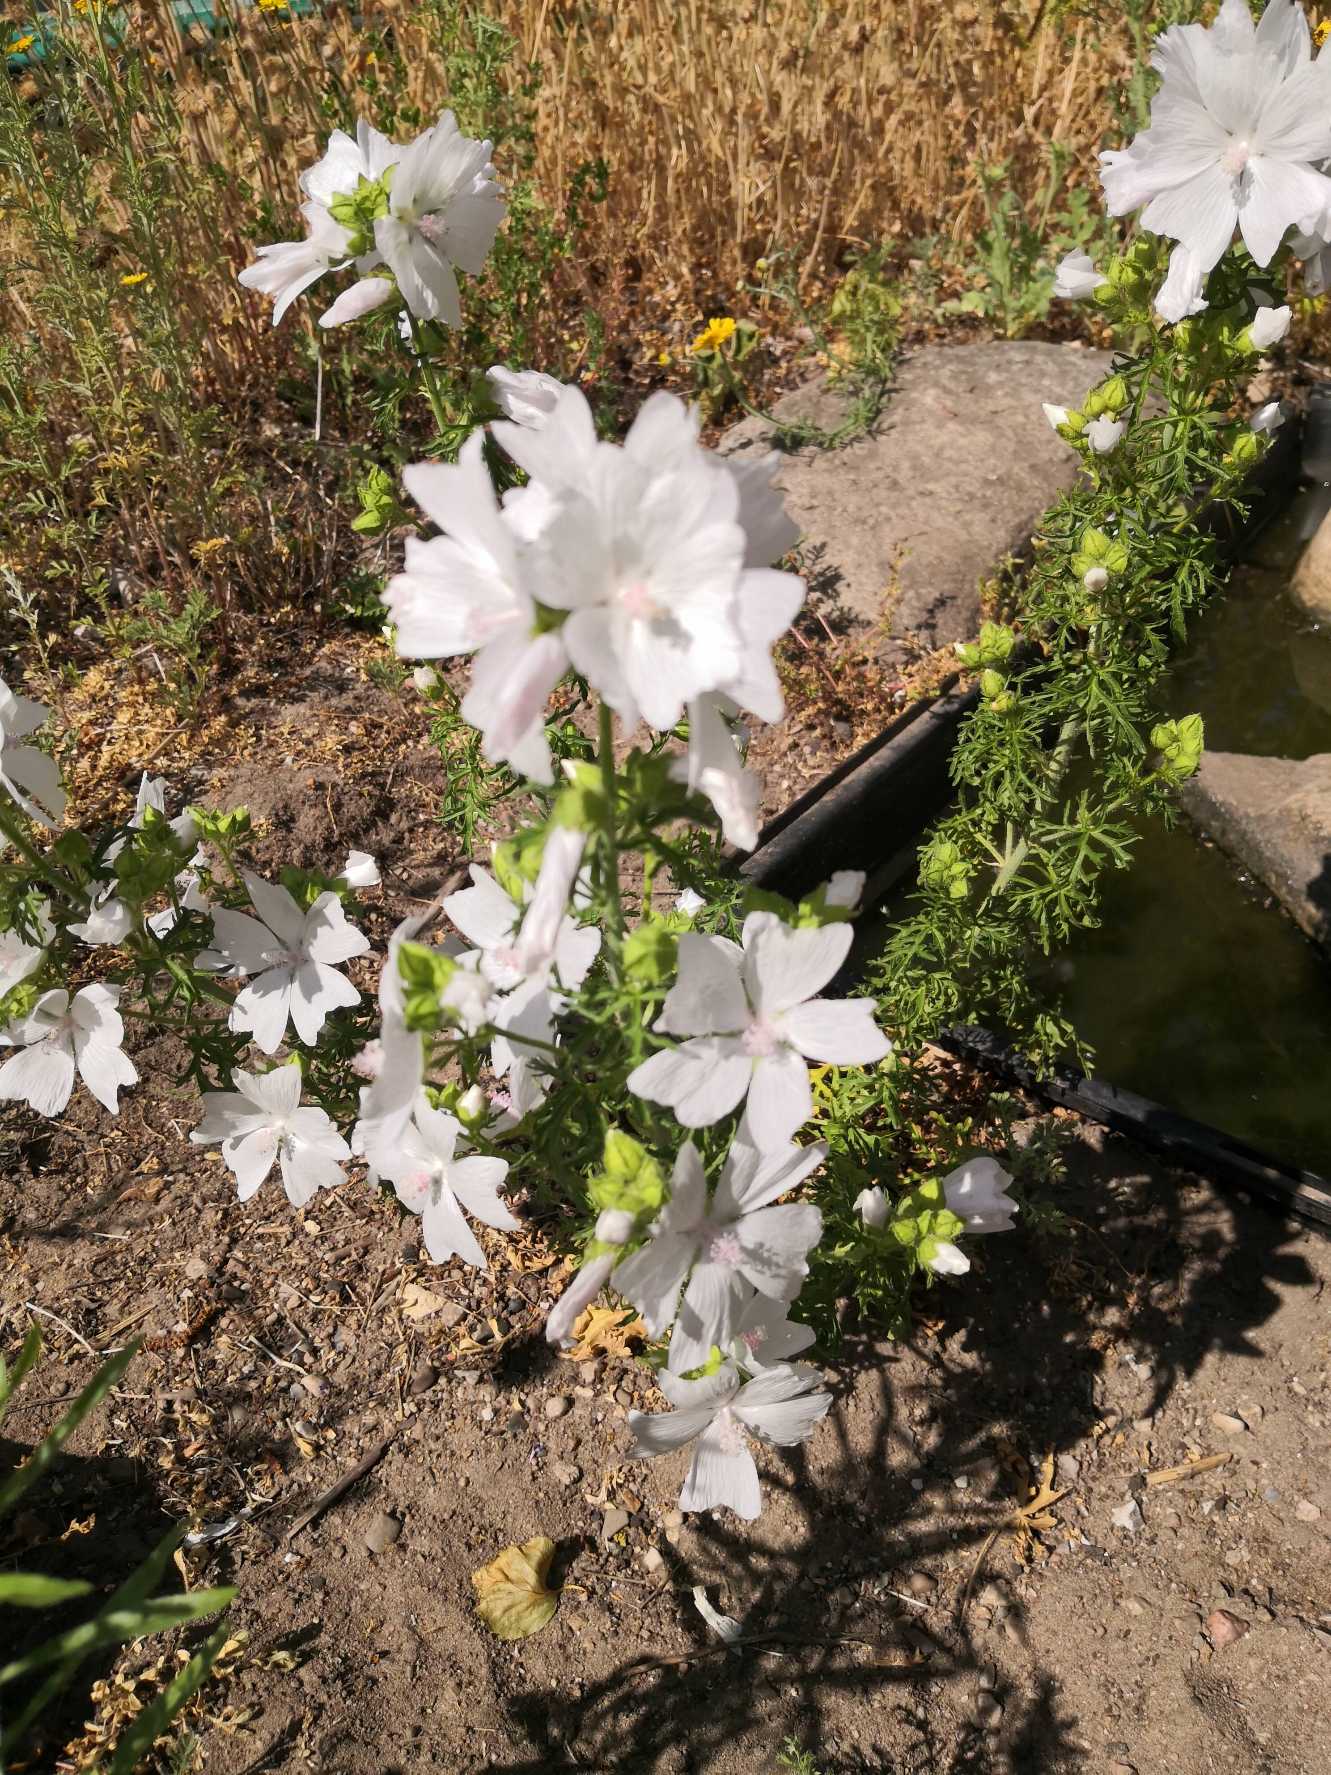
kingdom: Plantae
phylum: Tracheophyta
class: Magnoliopsida
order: Malvales
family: Malvaceae
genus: Malva
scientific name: Malva
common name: Katostslægten
